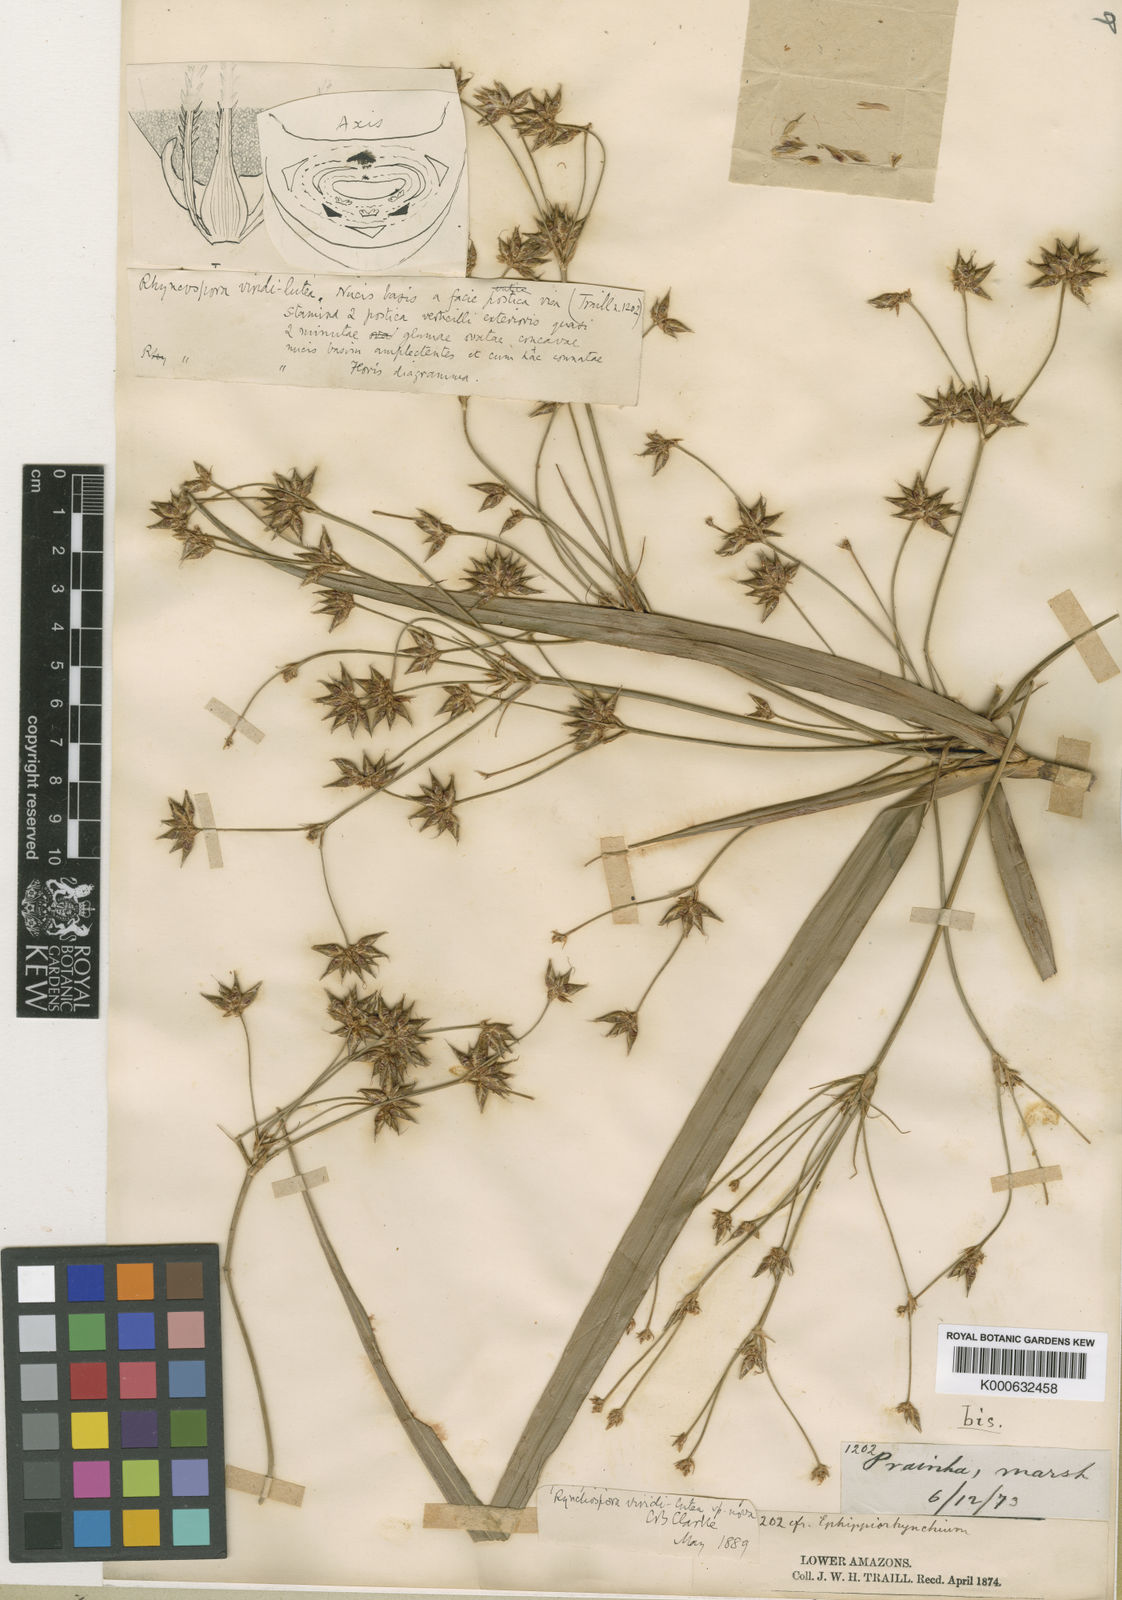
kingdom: Plantae
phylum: Tracheophyta
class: Liliopsida
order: Poales
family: Cyperaceae
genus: Rhynchospora
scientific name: Rhynchospora hassleri
